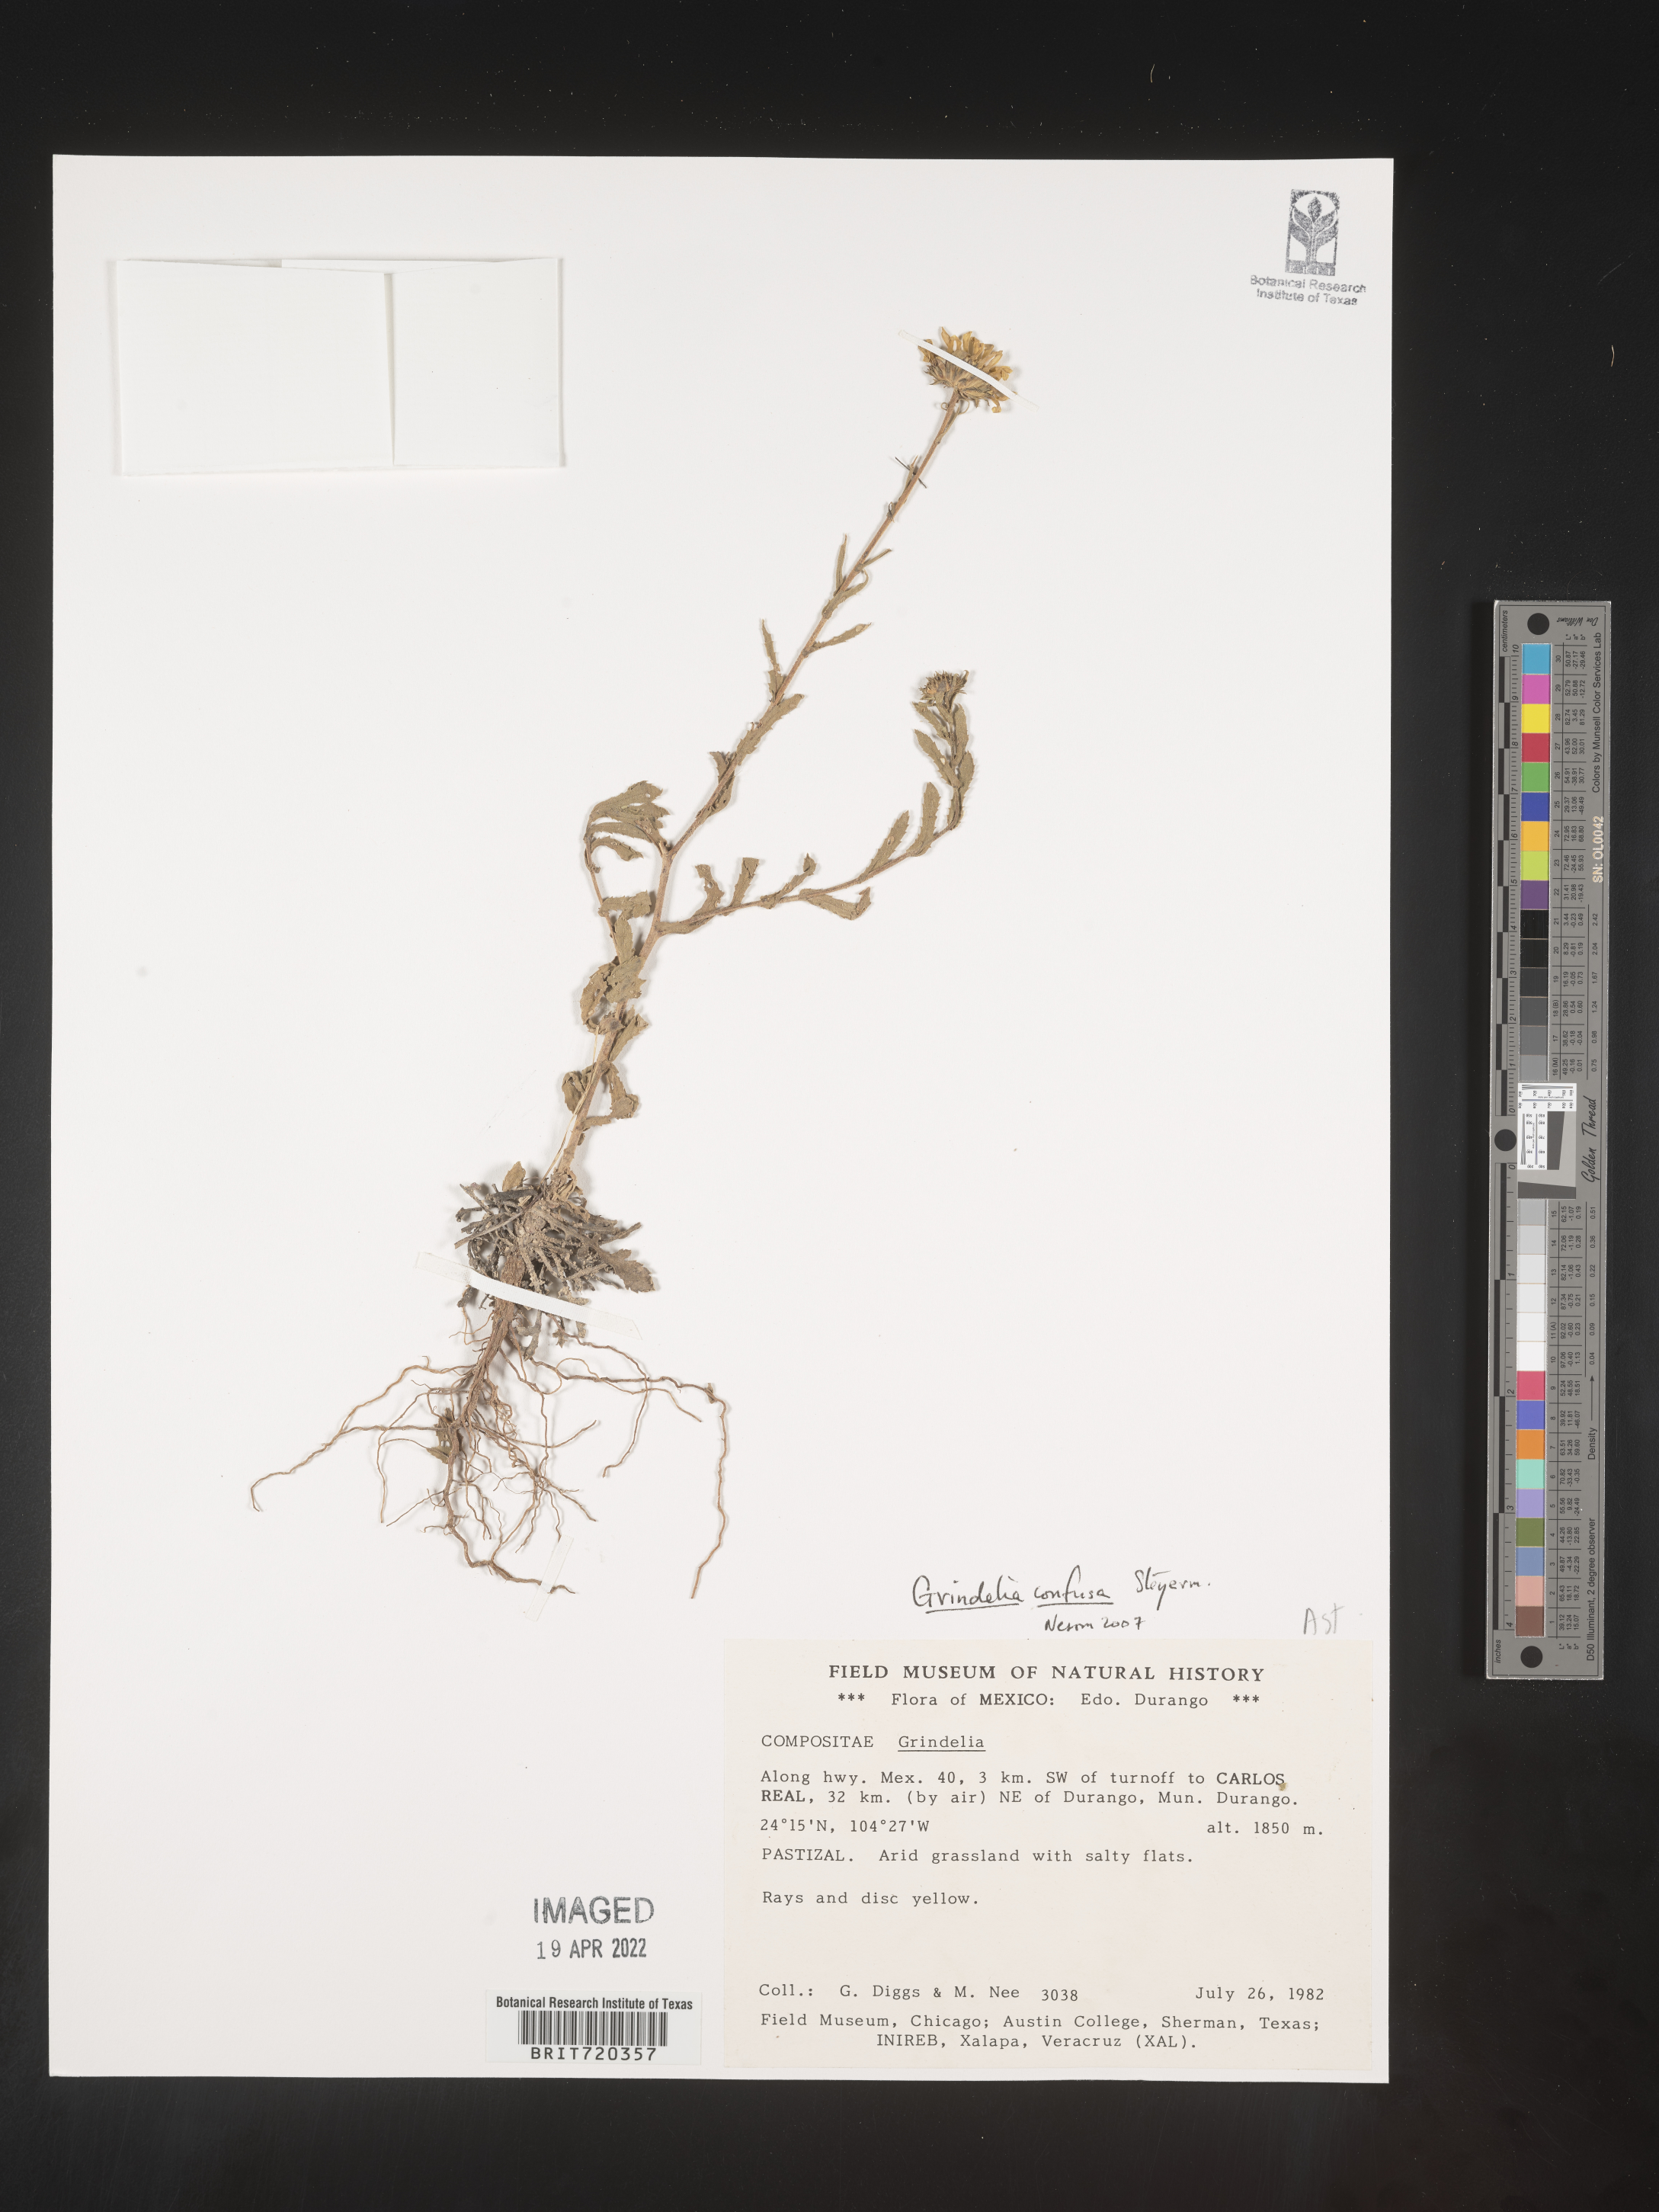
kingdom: Plantae
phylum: Tracheophyta
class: Magnoliopsida
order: Asterales
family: Asteraceae
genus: Grindelia
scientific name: Grindelia
